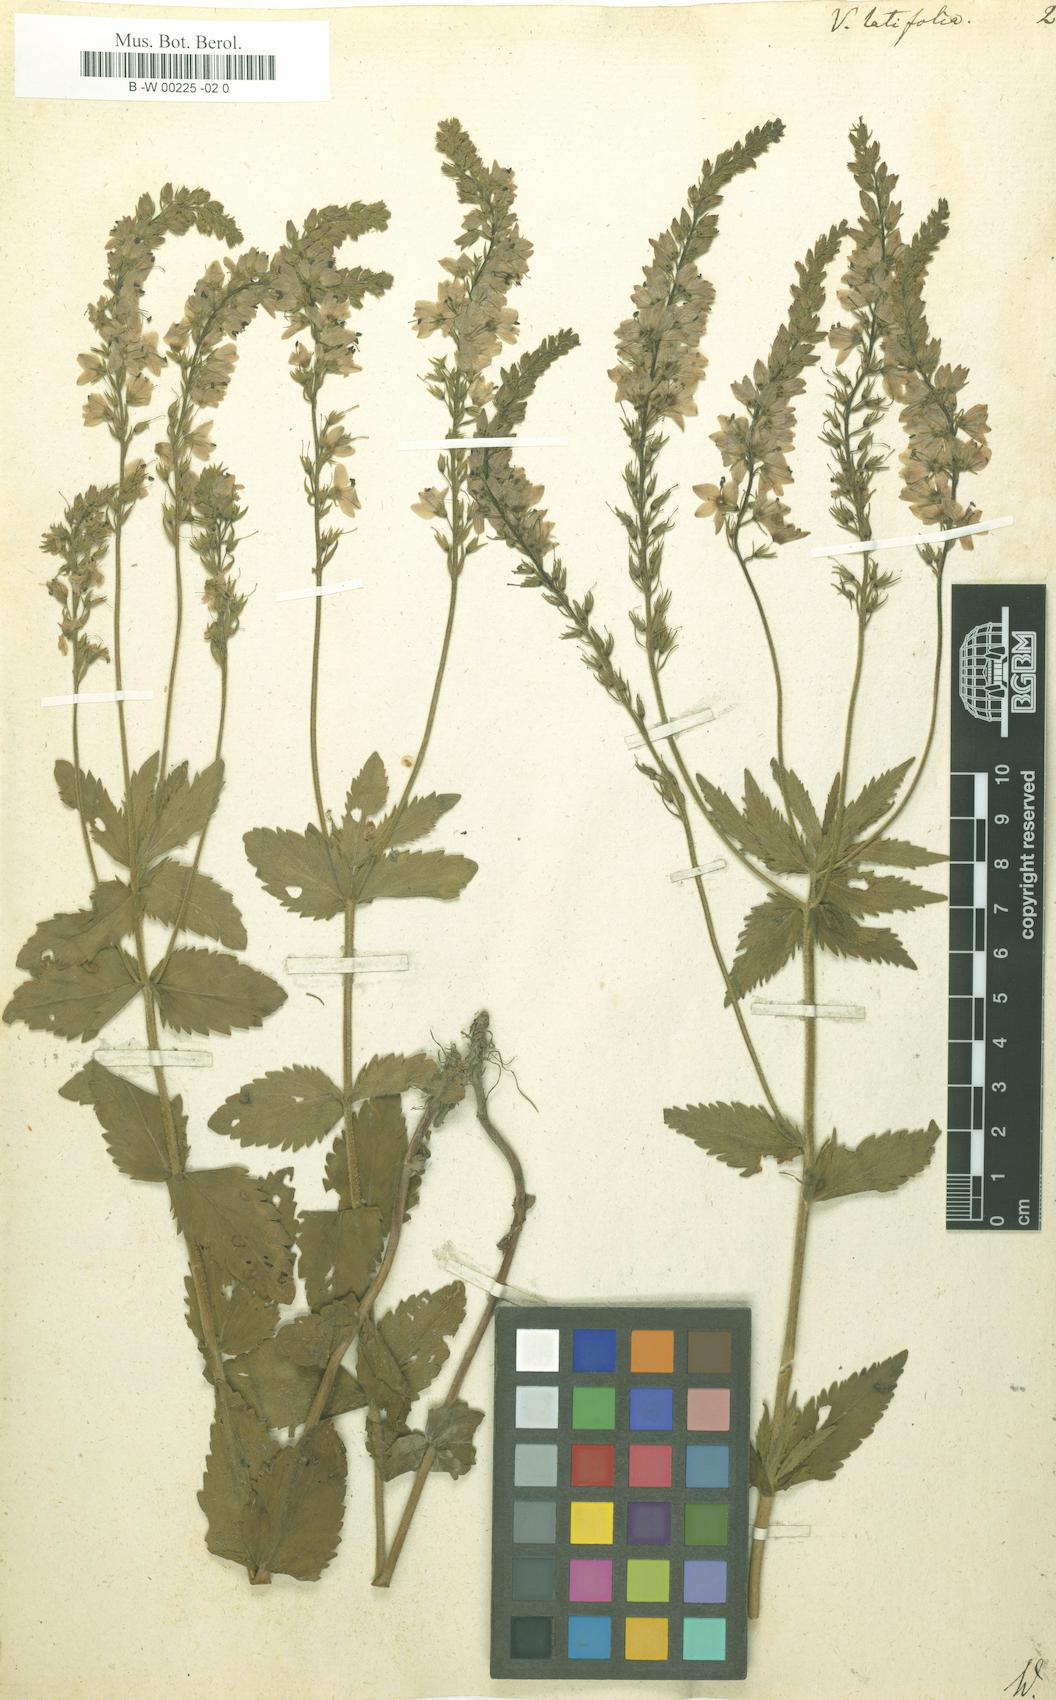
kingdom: Plantae
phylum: Tracheophyta
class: Magnoliopsida
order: Lamiales
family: Plantaginaceae
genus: Veronica
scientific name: Veronica latifolia
